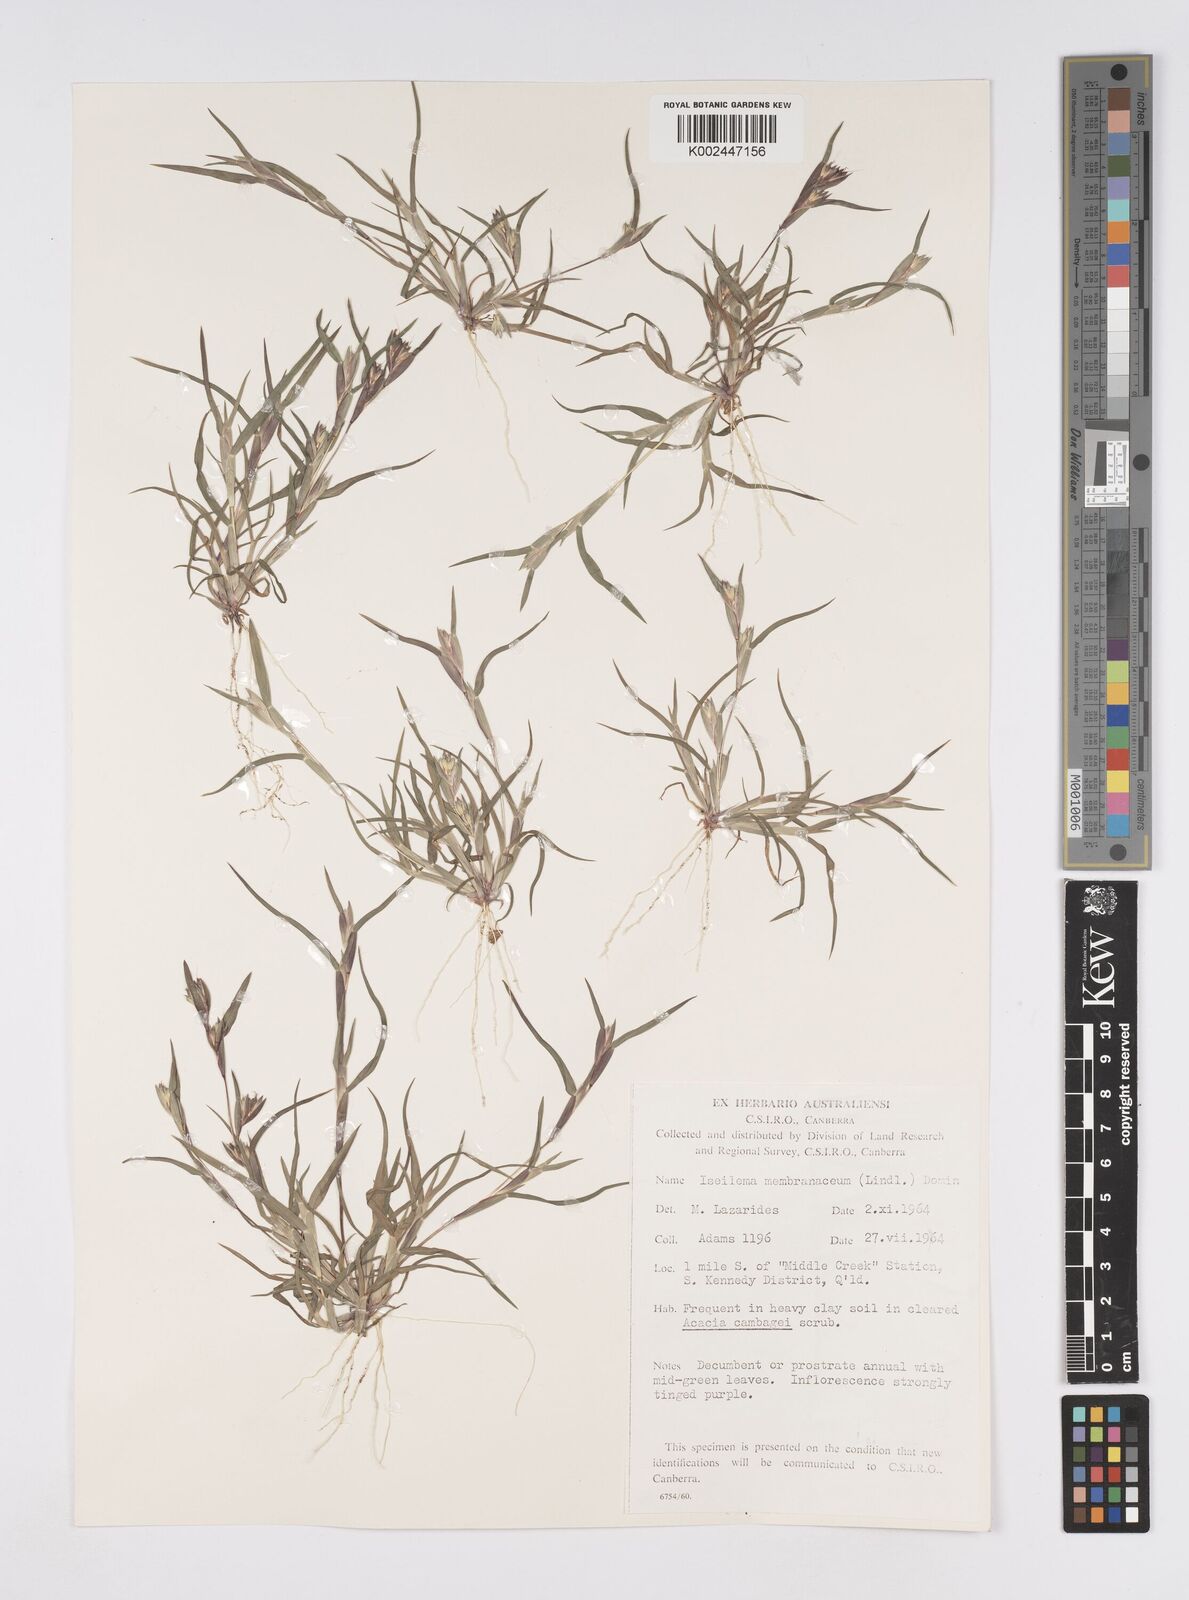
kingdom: Plantae
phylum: Tracheophyta
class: Liliopsida
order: Poales
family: Poaceae
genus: Iseilema
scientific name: Iseilema membranaceum
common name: Small flinders grass
